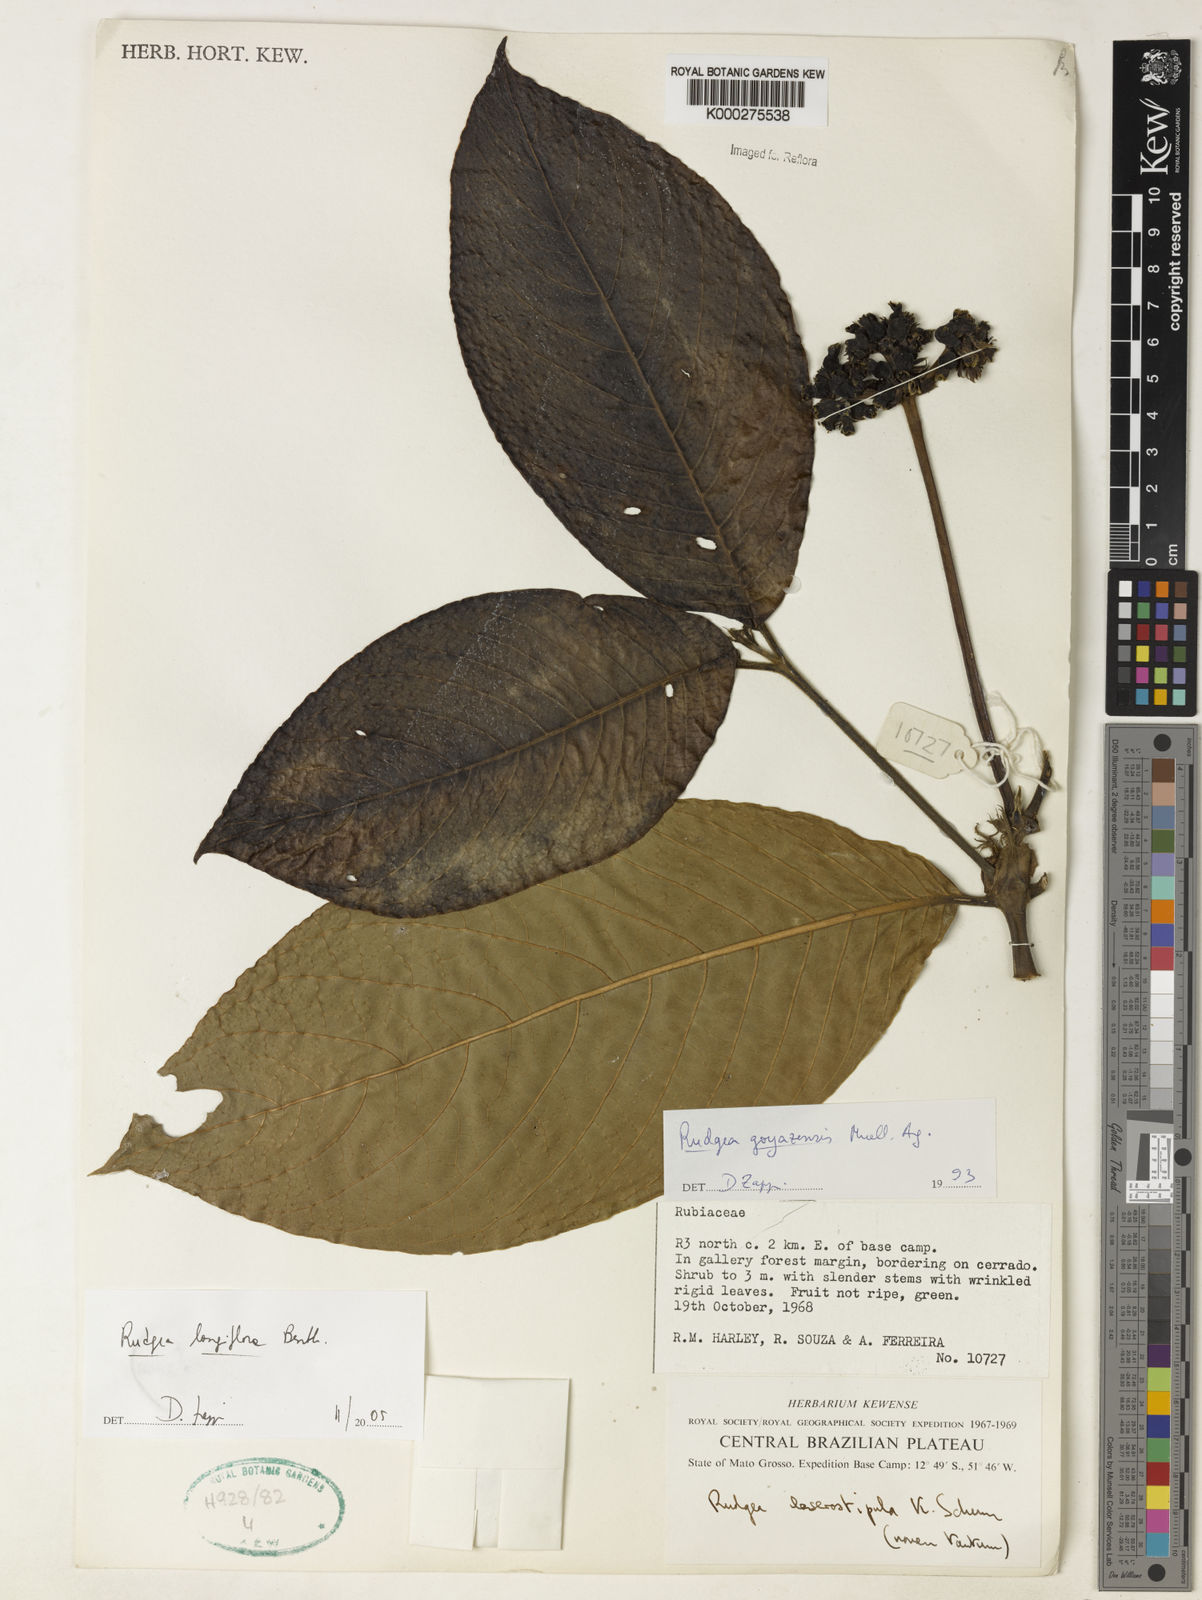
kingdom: Plantae
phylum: Tracheophyta
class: Magnoliopsida
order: Gentianales
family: Rubiaceae
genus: Rudgea
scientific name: Rudgea longiflora
